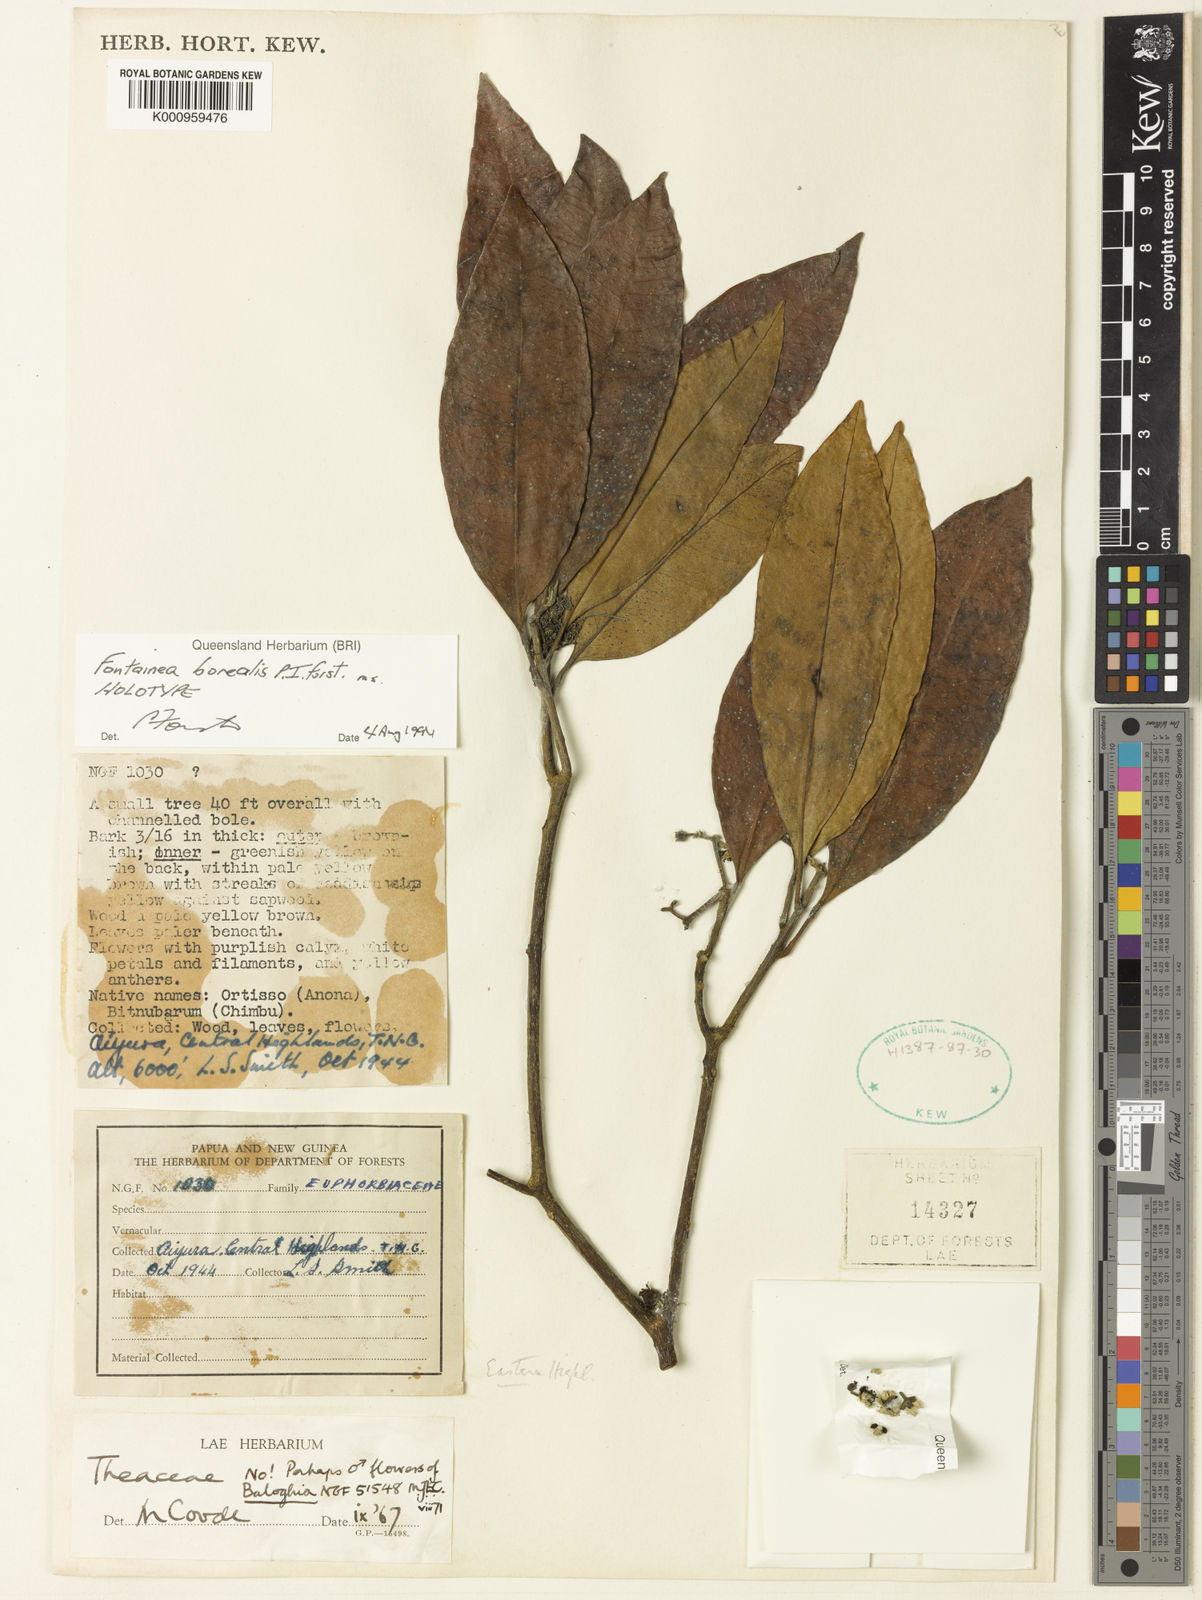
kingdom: Plantae
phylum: Tracheophyta
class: Magnoliopsida
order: Malpighiales
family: Euphorbiaceae
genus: Fontainea
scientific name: Fontainea borealis
